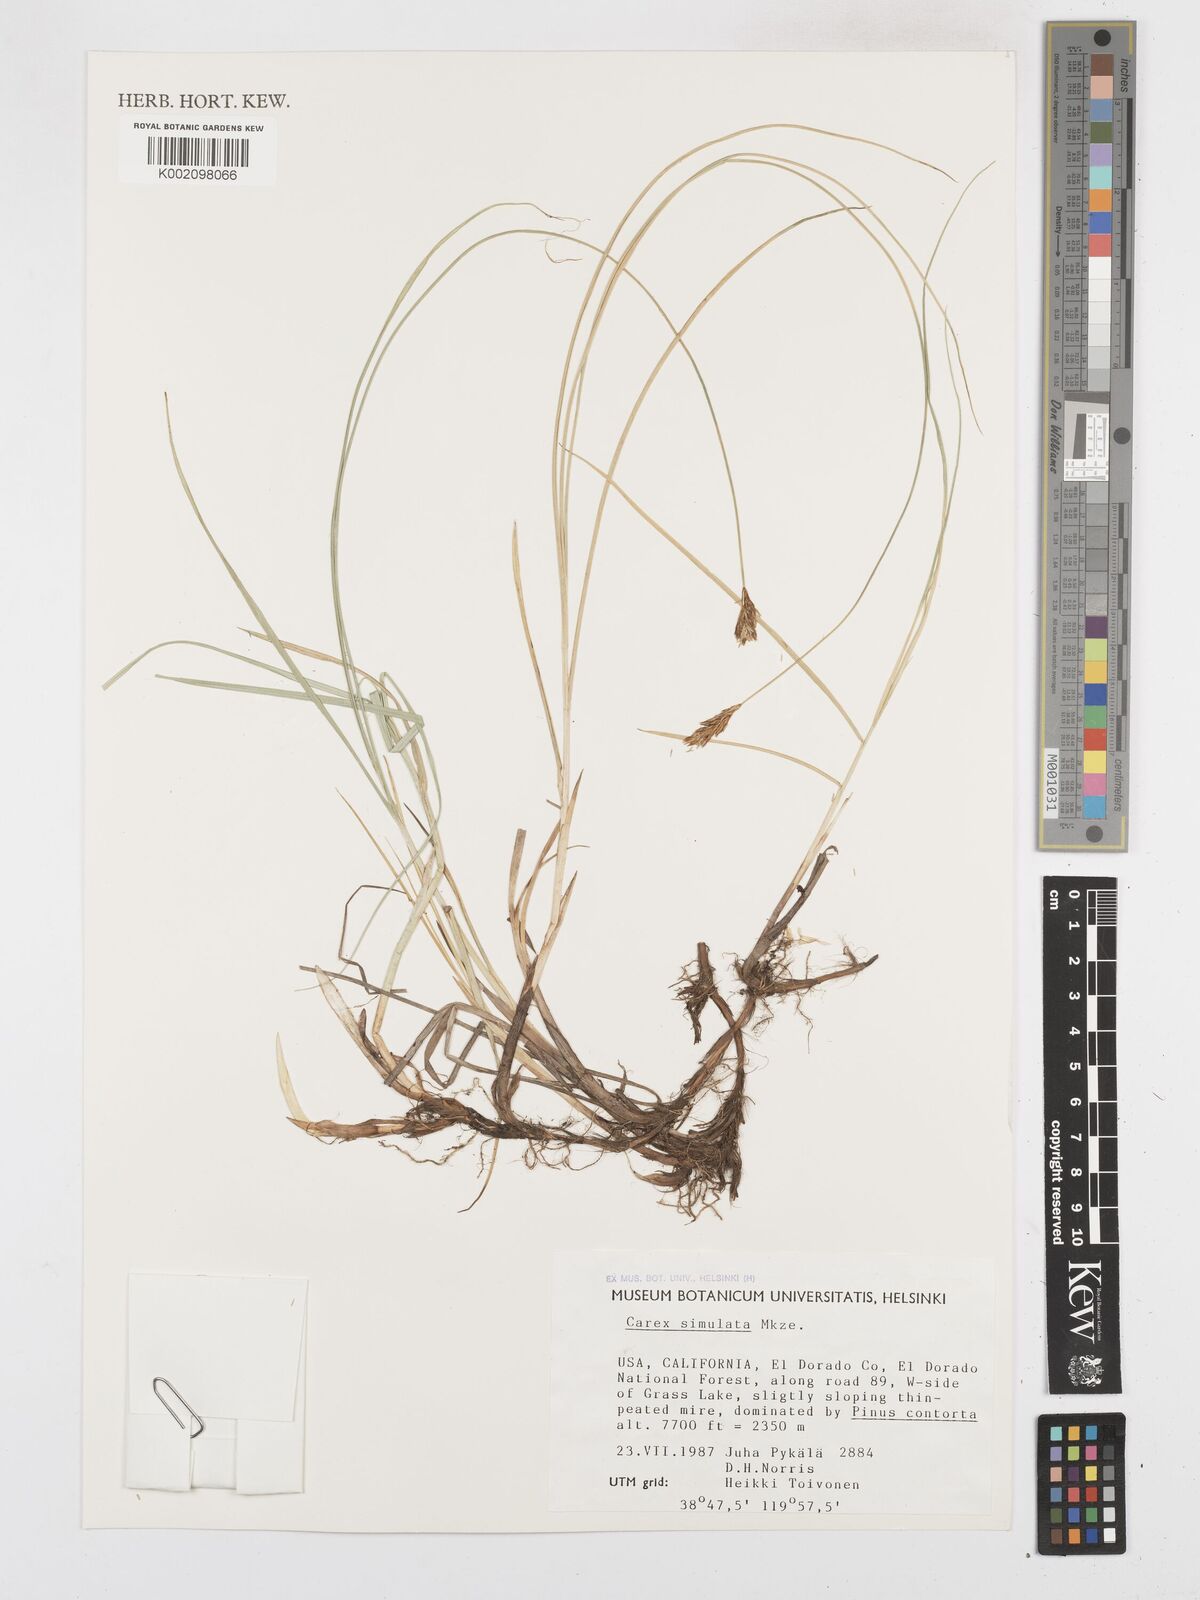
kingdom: Plantae
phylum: Tracheophyta
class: Liliopsida
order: Poales
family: Cyperaceae
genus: Carex
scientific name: Carex simulata
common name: Analogue sedge
